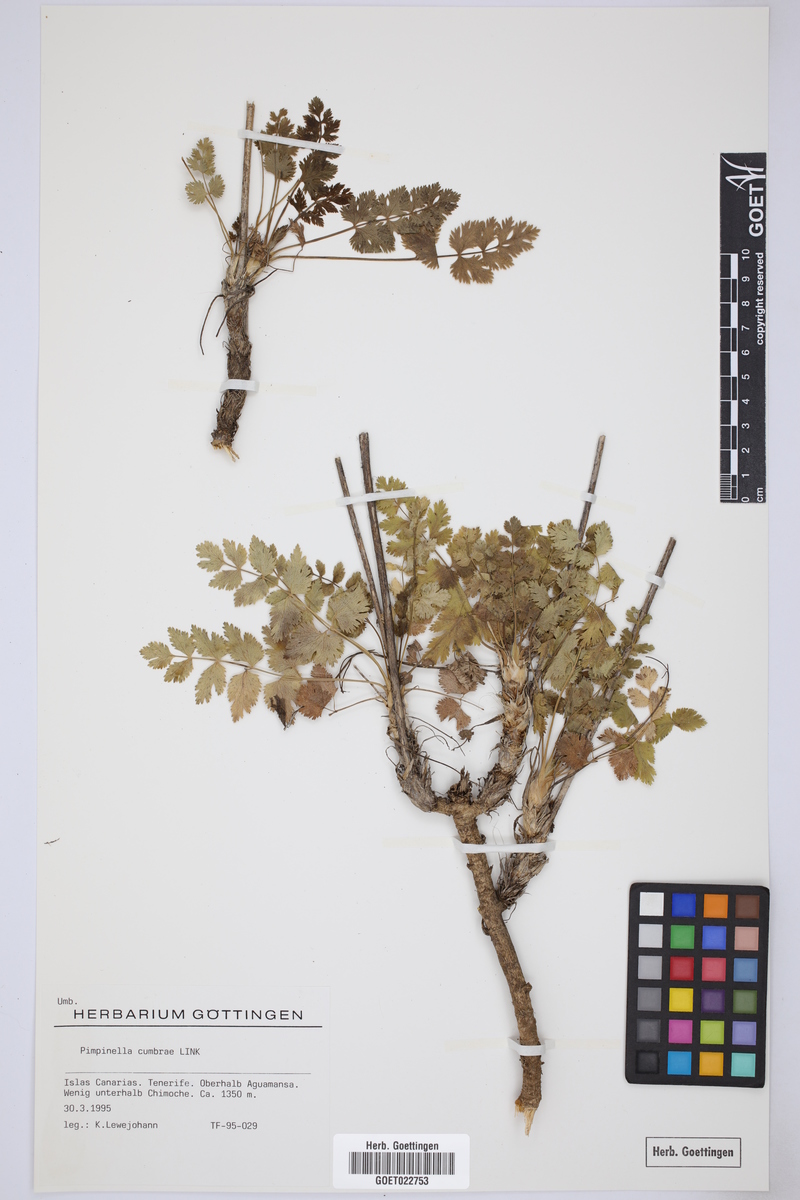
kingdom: Plantae
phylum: Tracheophyta
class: Magnoliopsida
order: Apiales
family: Apiaceae
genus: Pimpinella
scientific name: Pimpinella cumbrae
